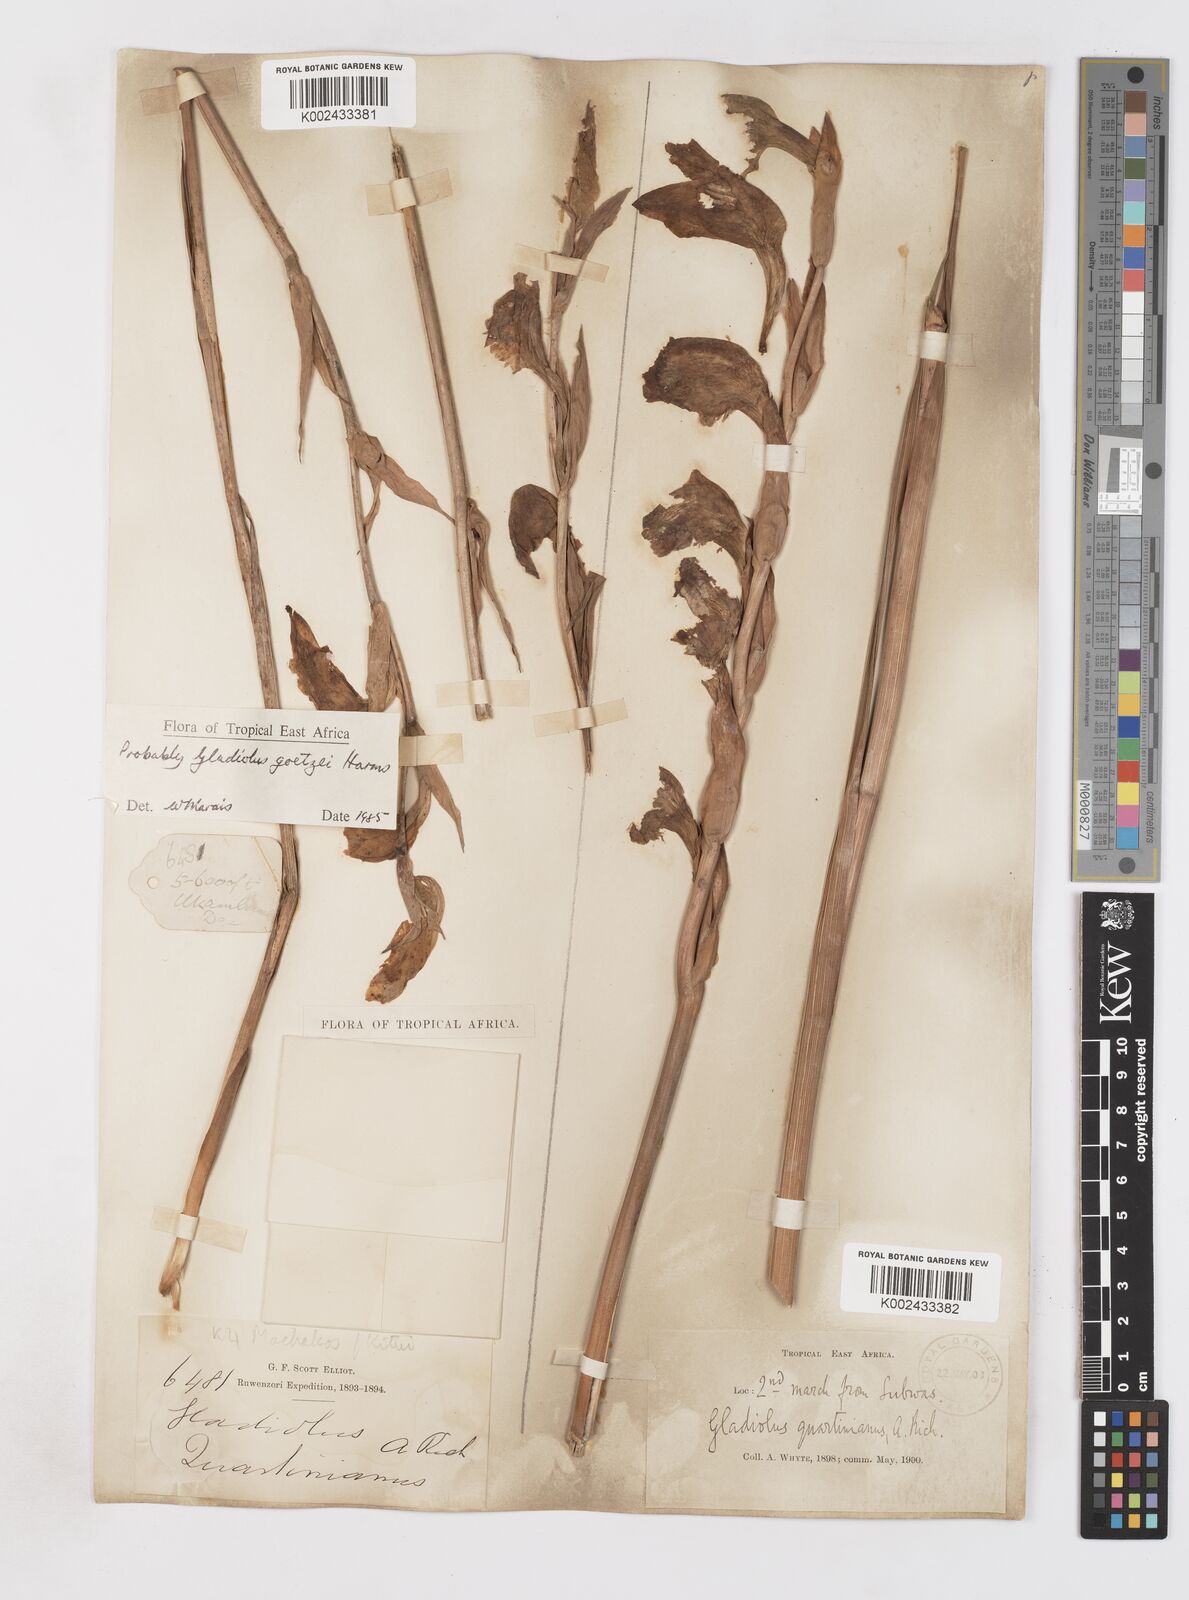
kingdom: Plantae
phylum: Tracheophyta
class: Liliopsida
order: Asparagales
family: Iridaceae
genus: Gladiolus
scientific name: Gladiolus dalenii
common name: Cornflag
